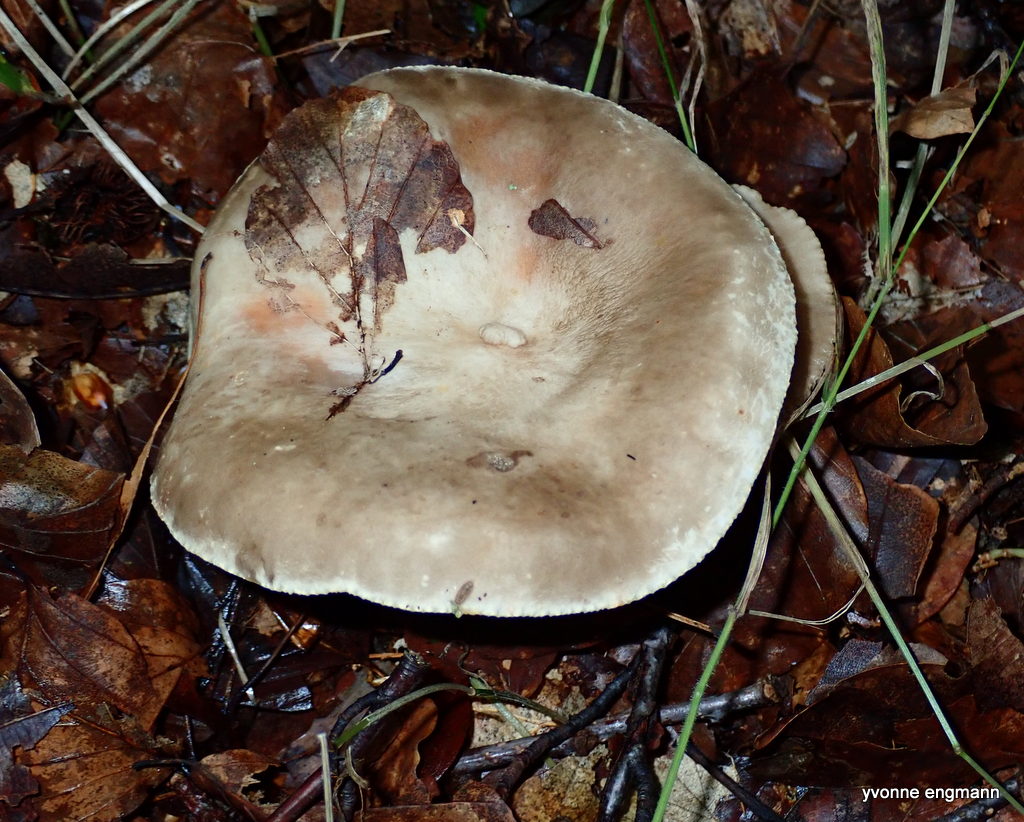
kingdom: Fungi
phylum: Basidiomycota
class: Agaricomycetes
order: Russulales
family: Russulaceae
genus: Lactarius
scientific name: Lactarius pterosporus
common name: vingesporet mælkehat
